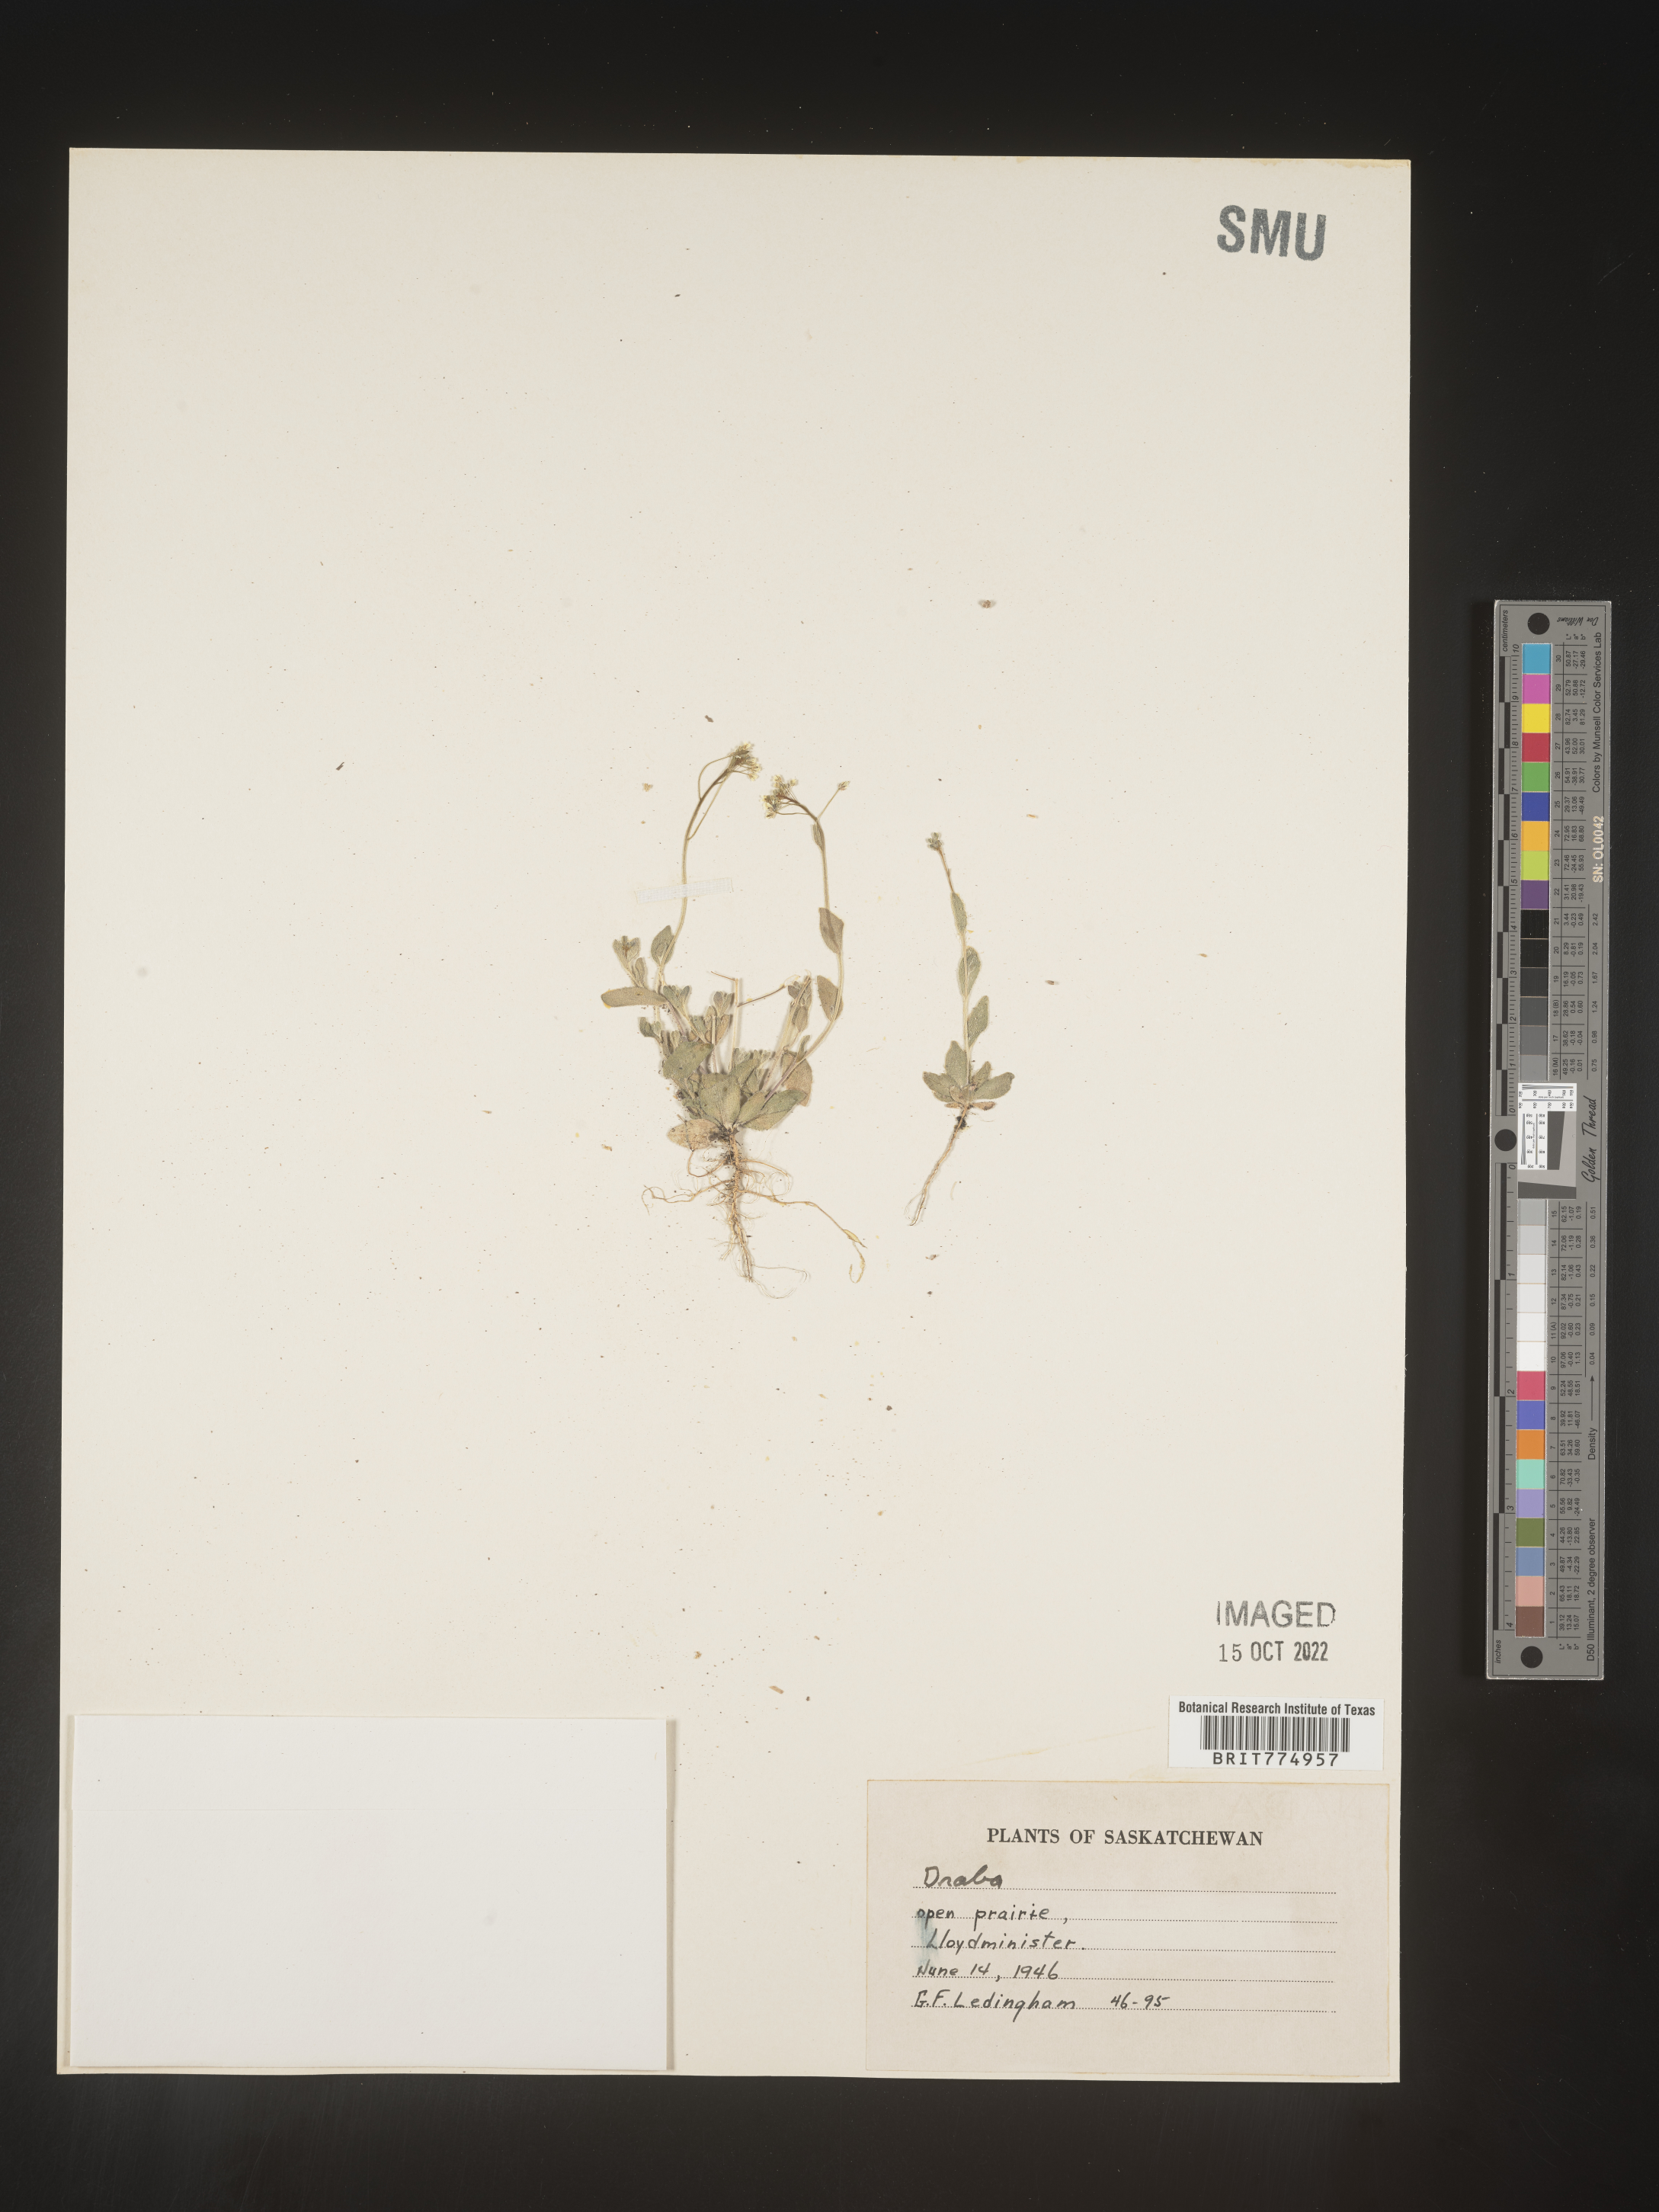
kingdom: Plantae
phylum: Tracheophyta
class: Magnoliopsida
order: Brassicales
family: Brassicaceae
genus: Draba
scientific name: Draba
